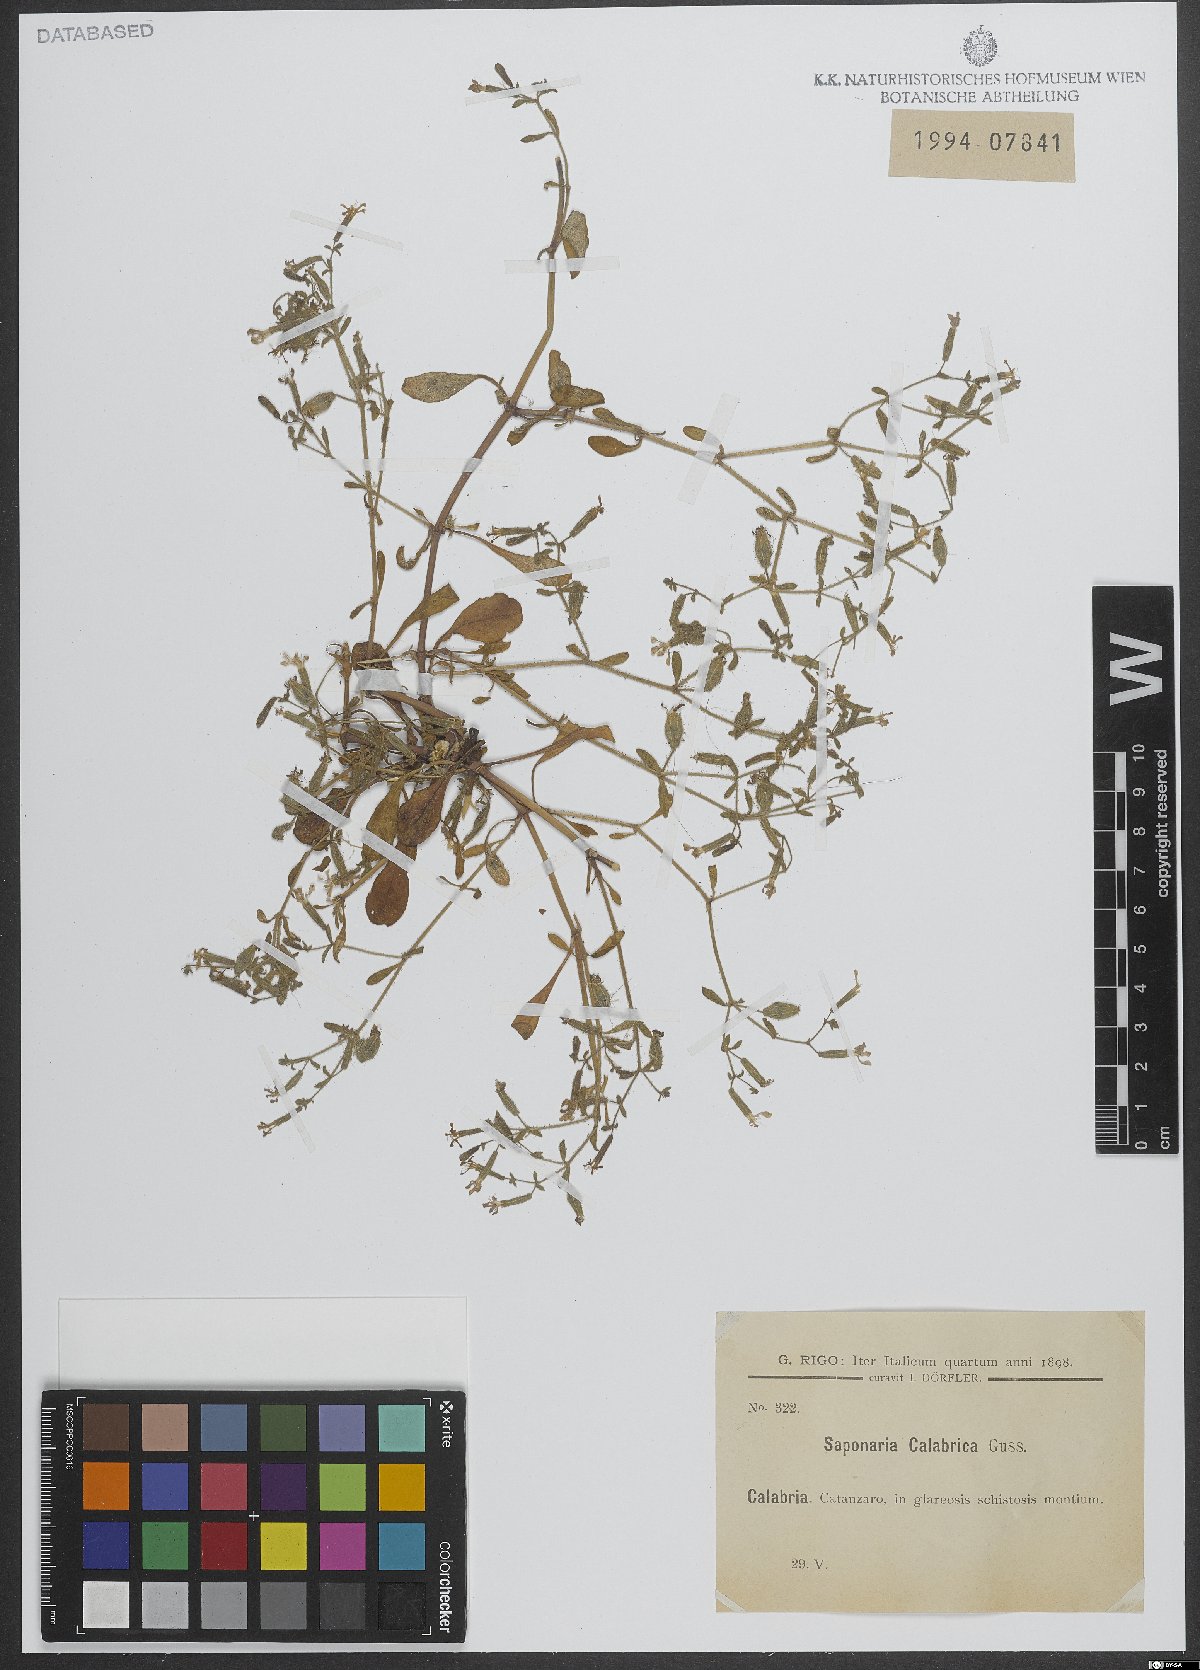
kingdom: Plantae
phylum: Tracheophyta
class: Magnoliopsida
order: Caryophyllales
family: Caryophyllaceae
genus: Saponaria
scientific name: Saponaria calabrica
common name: Adriatic soapwort
